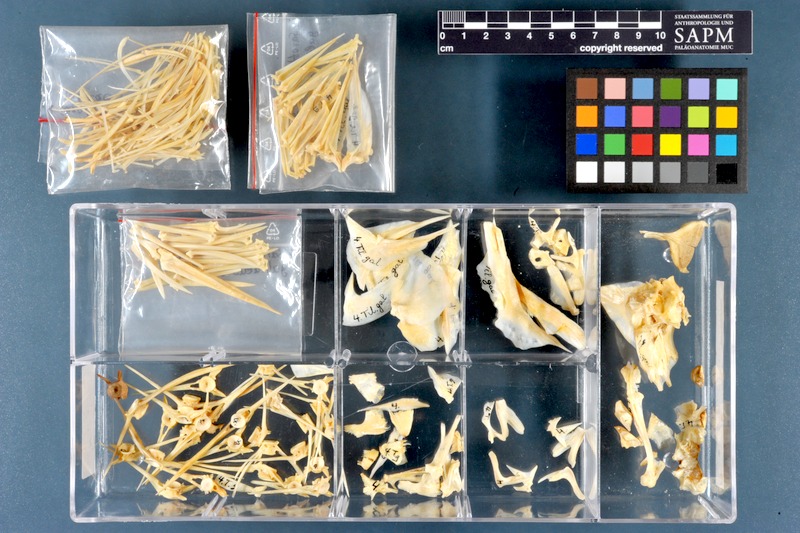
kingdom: Animalia
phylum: Chordata
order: Perciformes
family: Cichlidae
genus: Sarotherodon
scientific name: Sarotherodon galilaeus
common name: Mango tilapia
